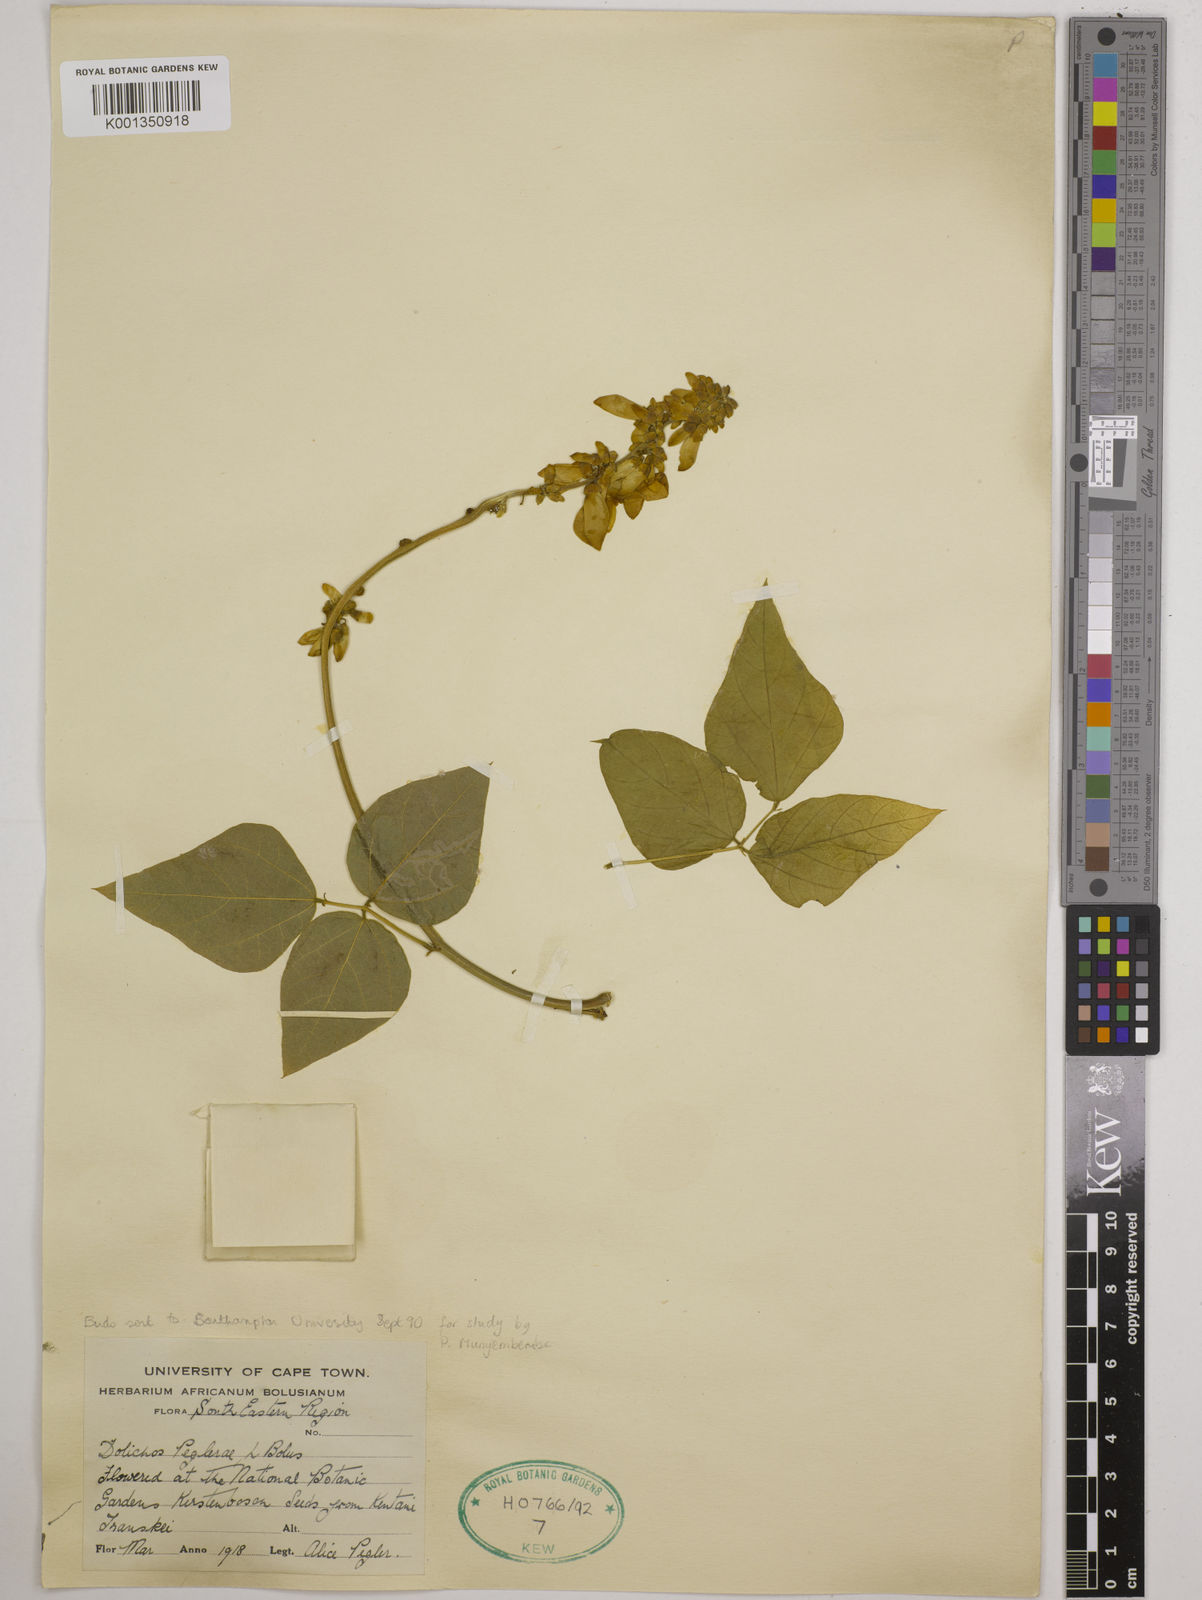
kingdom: Plantae
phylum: Tracheophyta
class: Magnoliopsida
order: Fabales
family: Fabaceae
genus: Dolichos
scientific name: Dolichos peglerae
